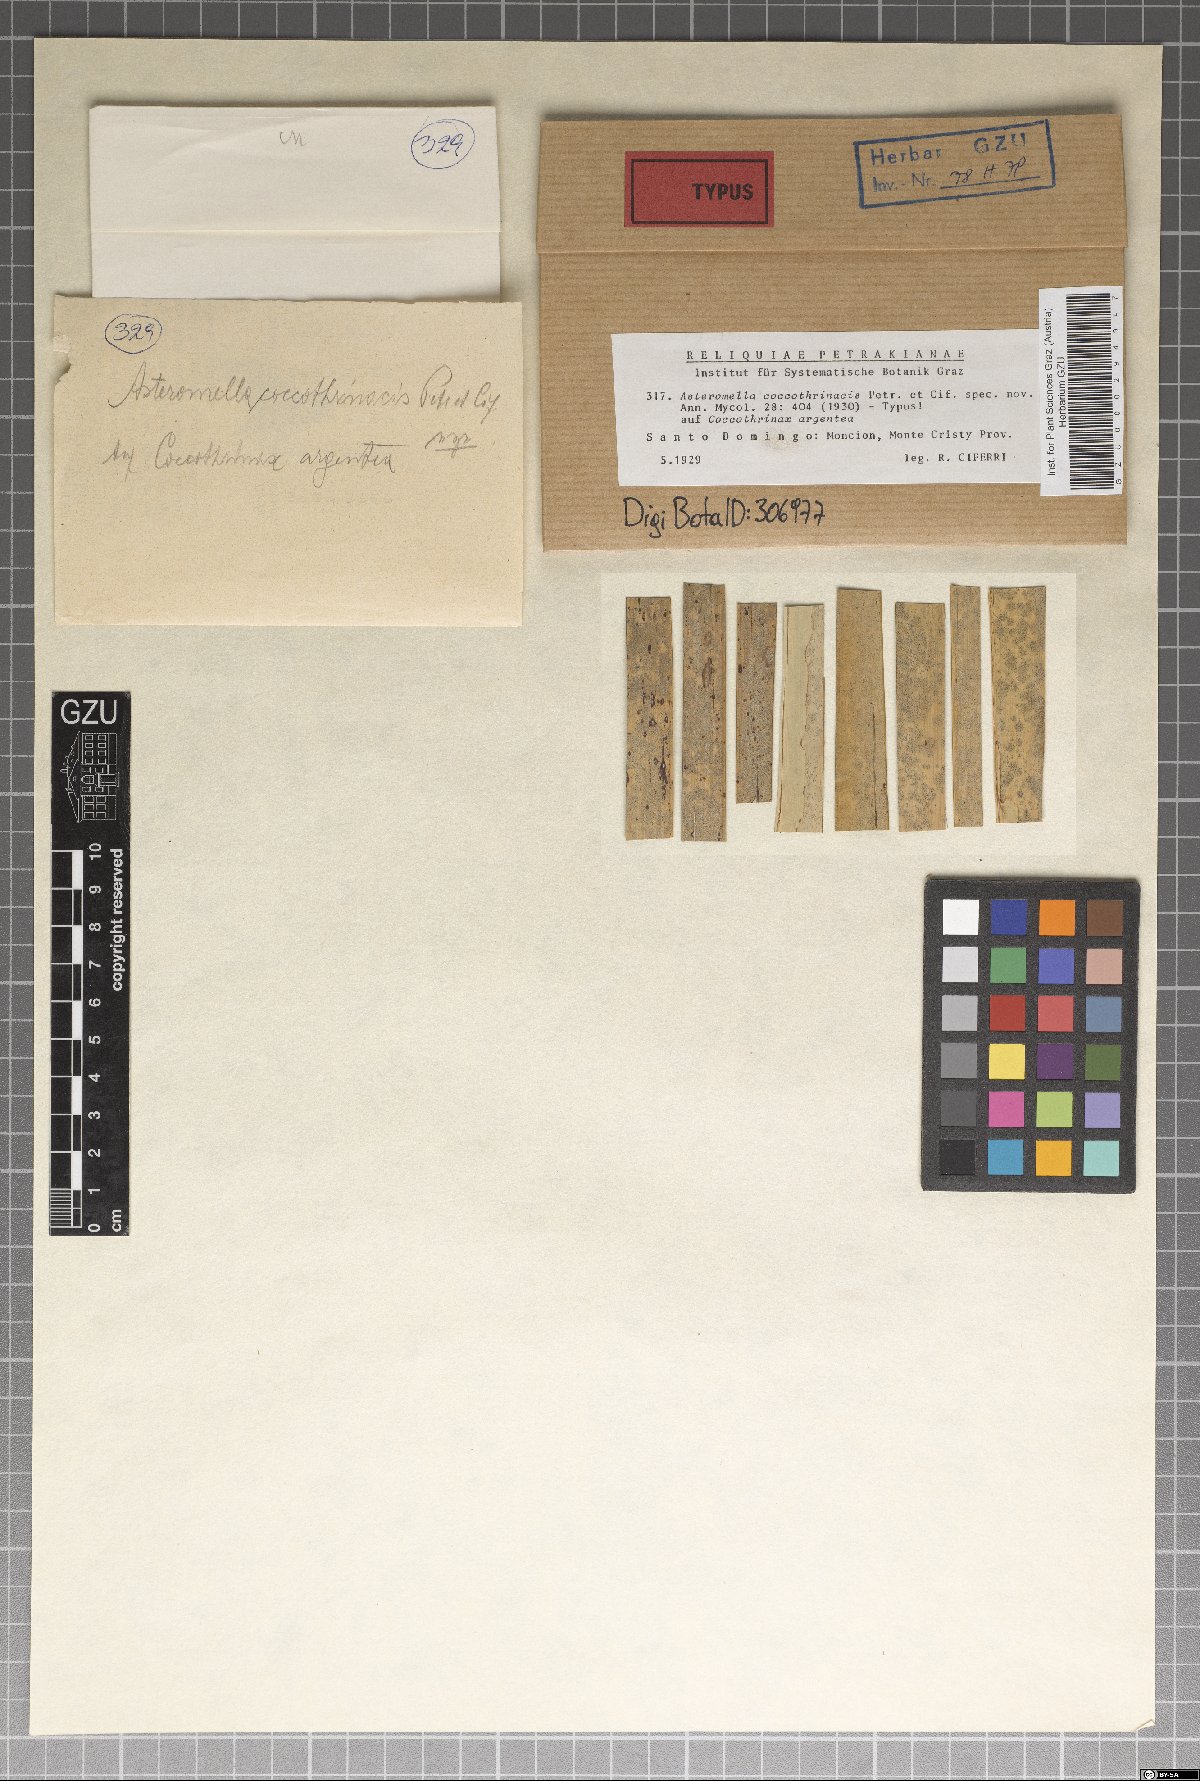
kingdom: Fungi
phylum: Ascomycota
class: Dothideomycetes
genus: Asteromella
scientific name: Asteromella coccothrinacis
